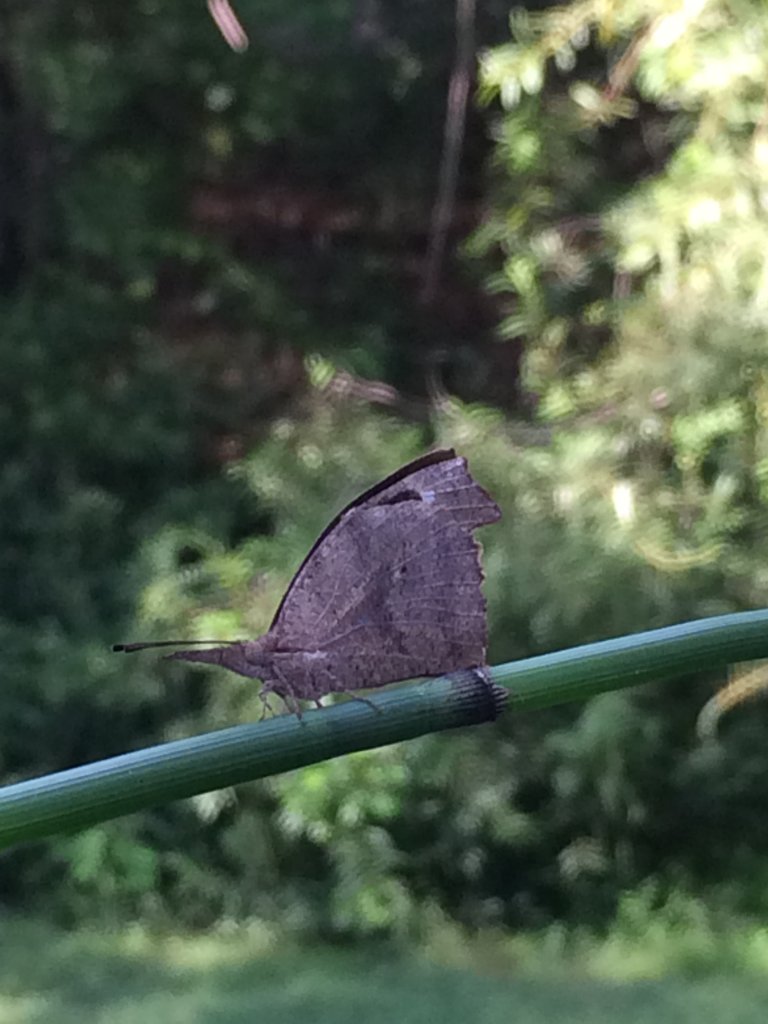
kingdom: Animalia
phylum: Arthropoda
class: Insecta
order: Lepidoptera
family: Nymphalidae
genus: Libytheana
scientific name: Libytheana carinenta
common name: American Snout
